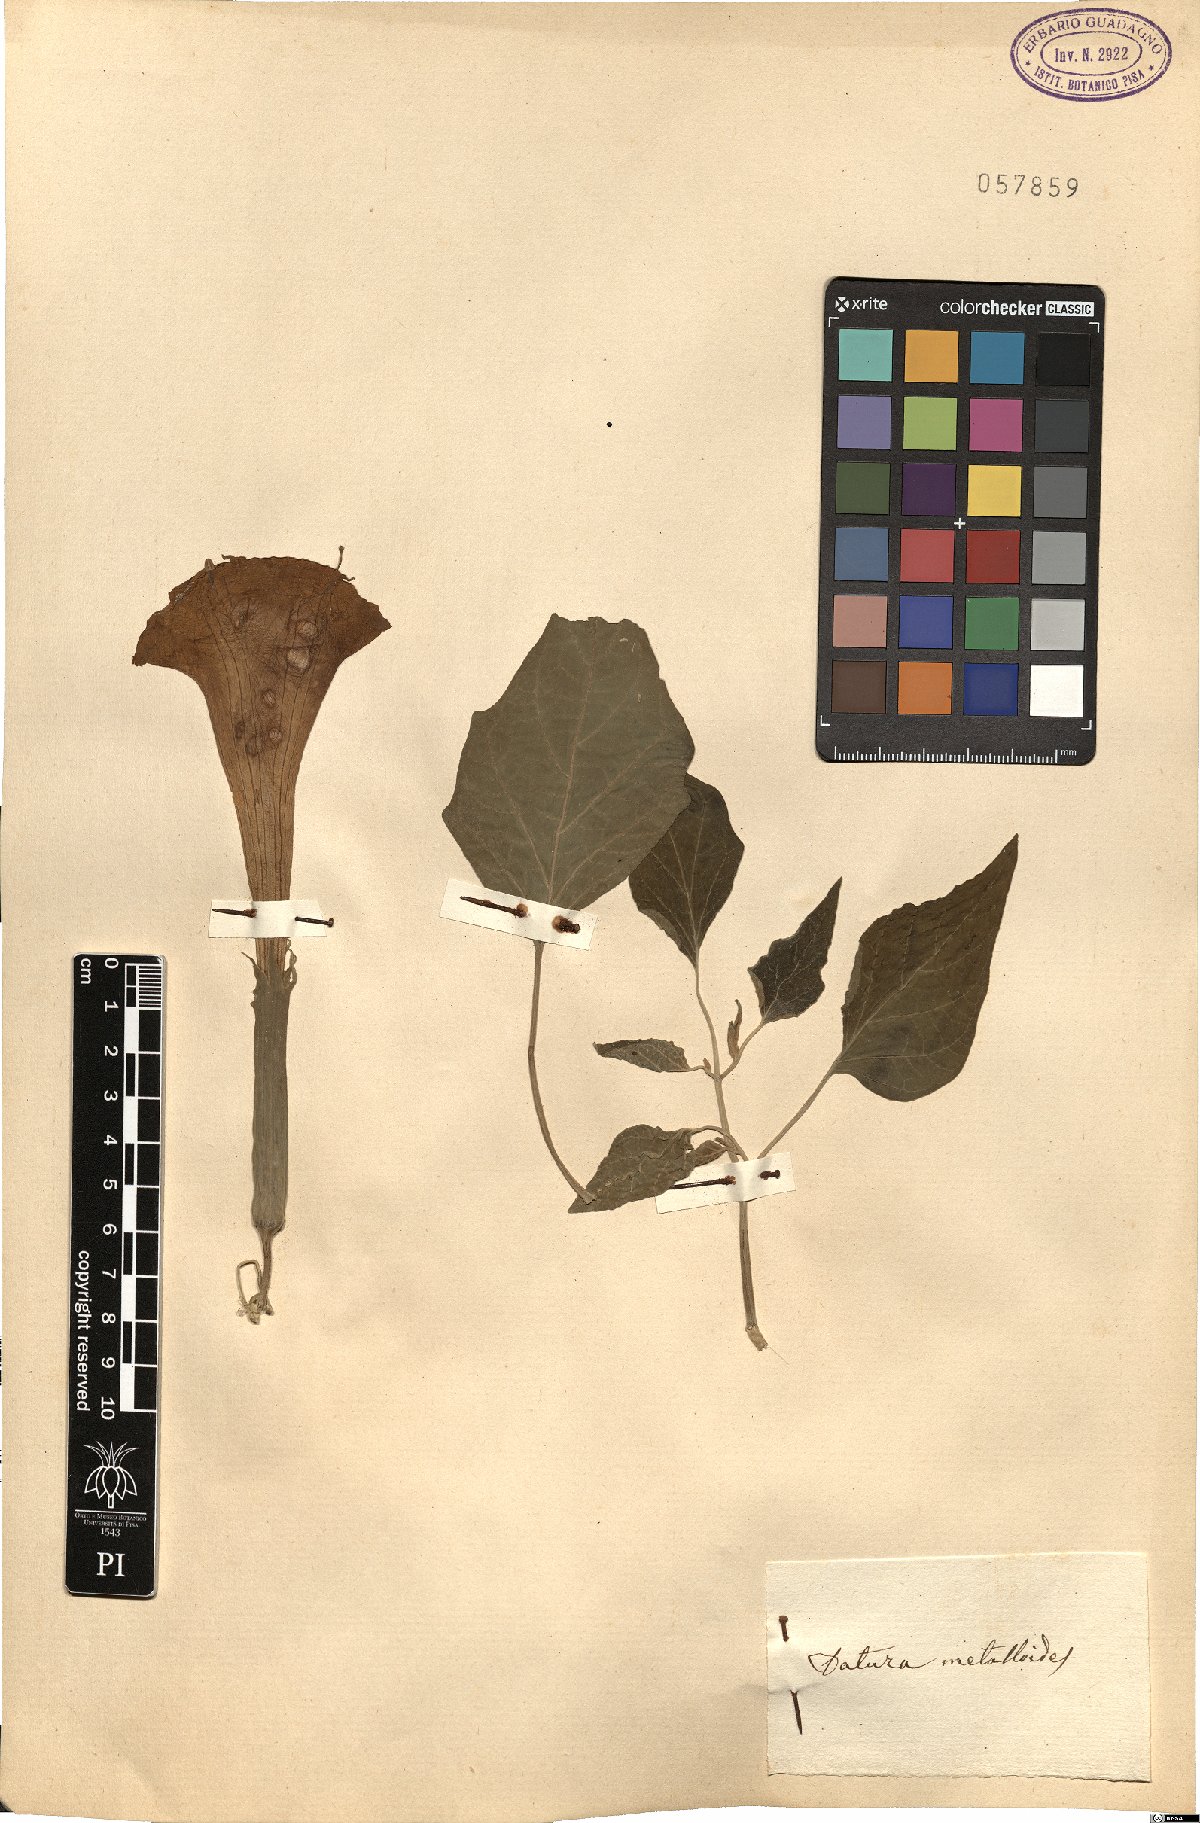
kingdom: Plantae
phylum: Tracheophyta
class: Magnoliopsida
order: Solanales
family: Solanaceae
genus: Datura
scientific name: Datura innoxia
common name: Downy thorn-apple
